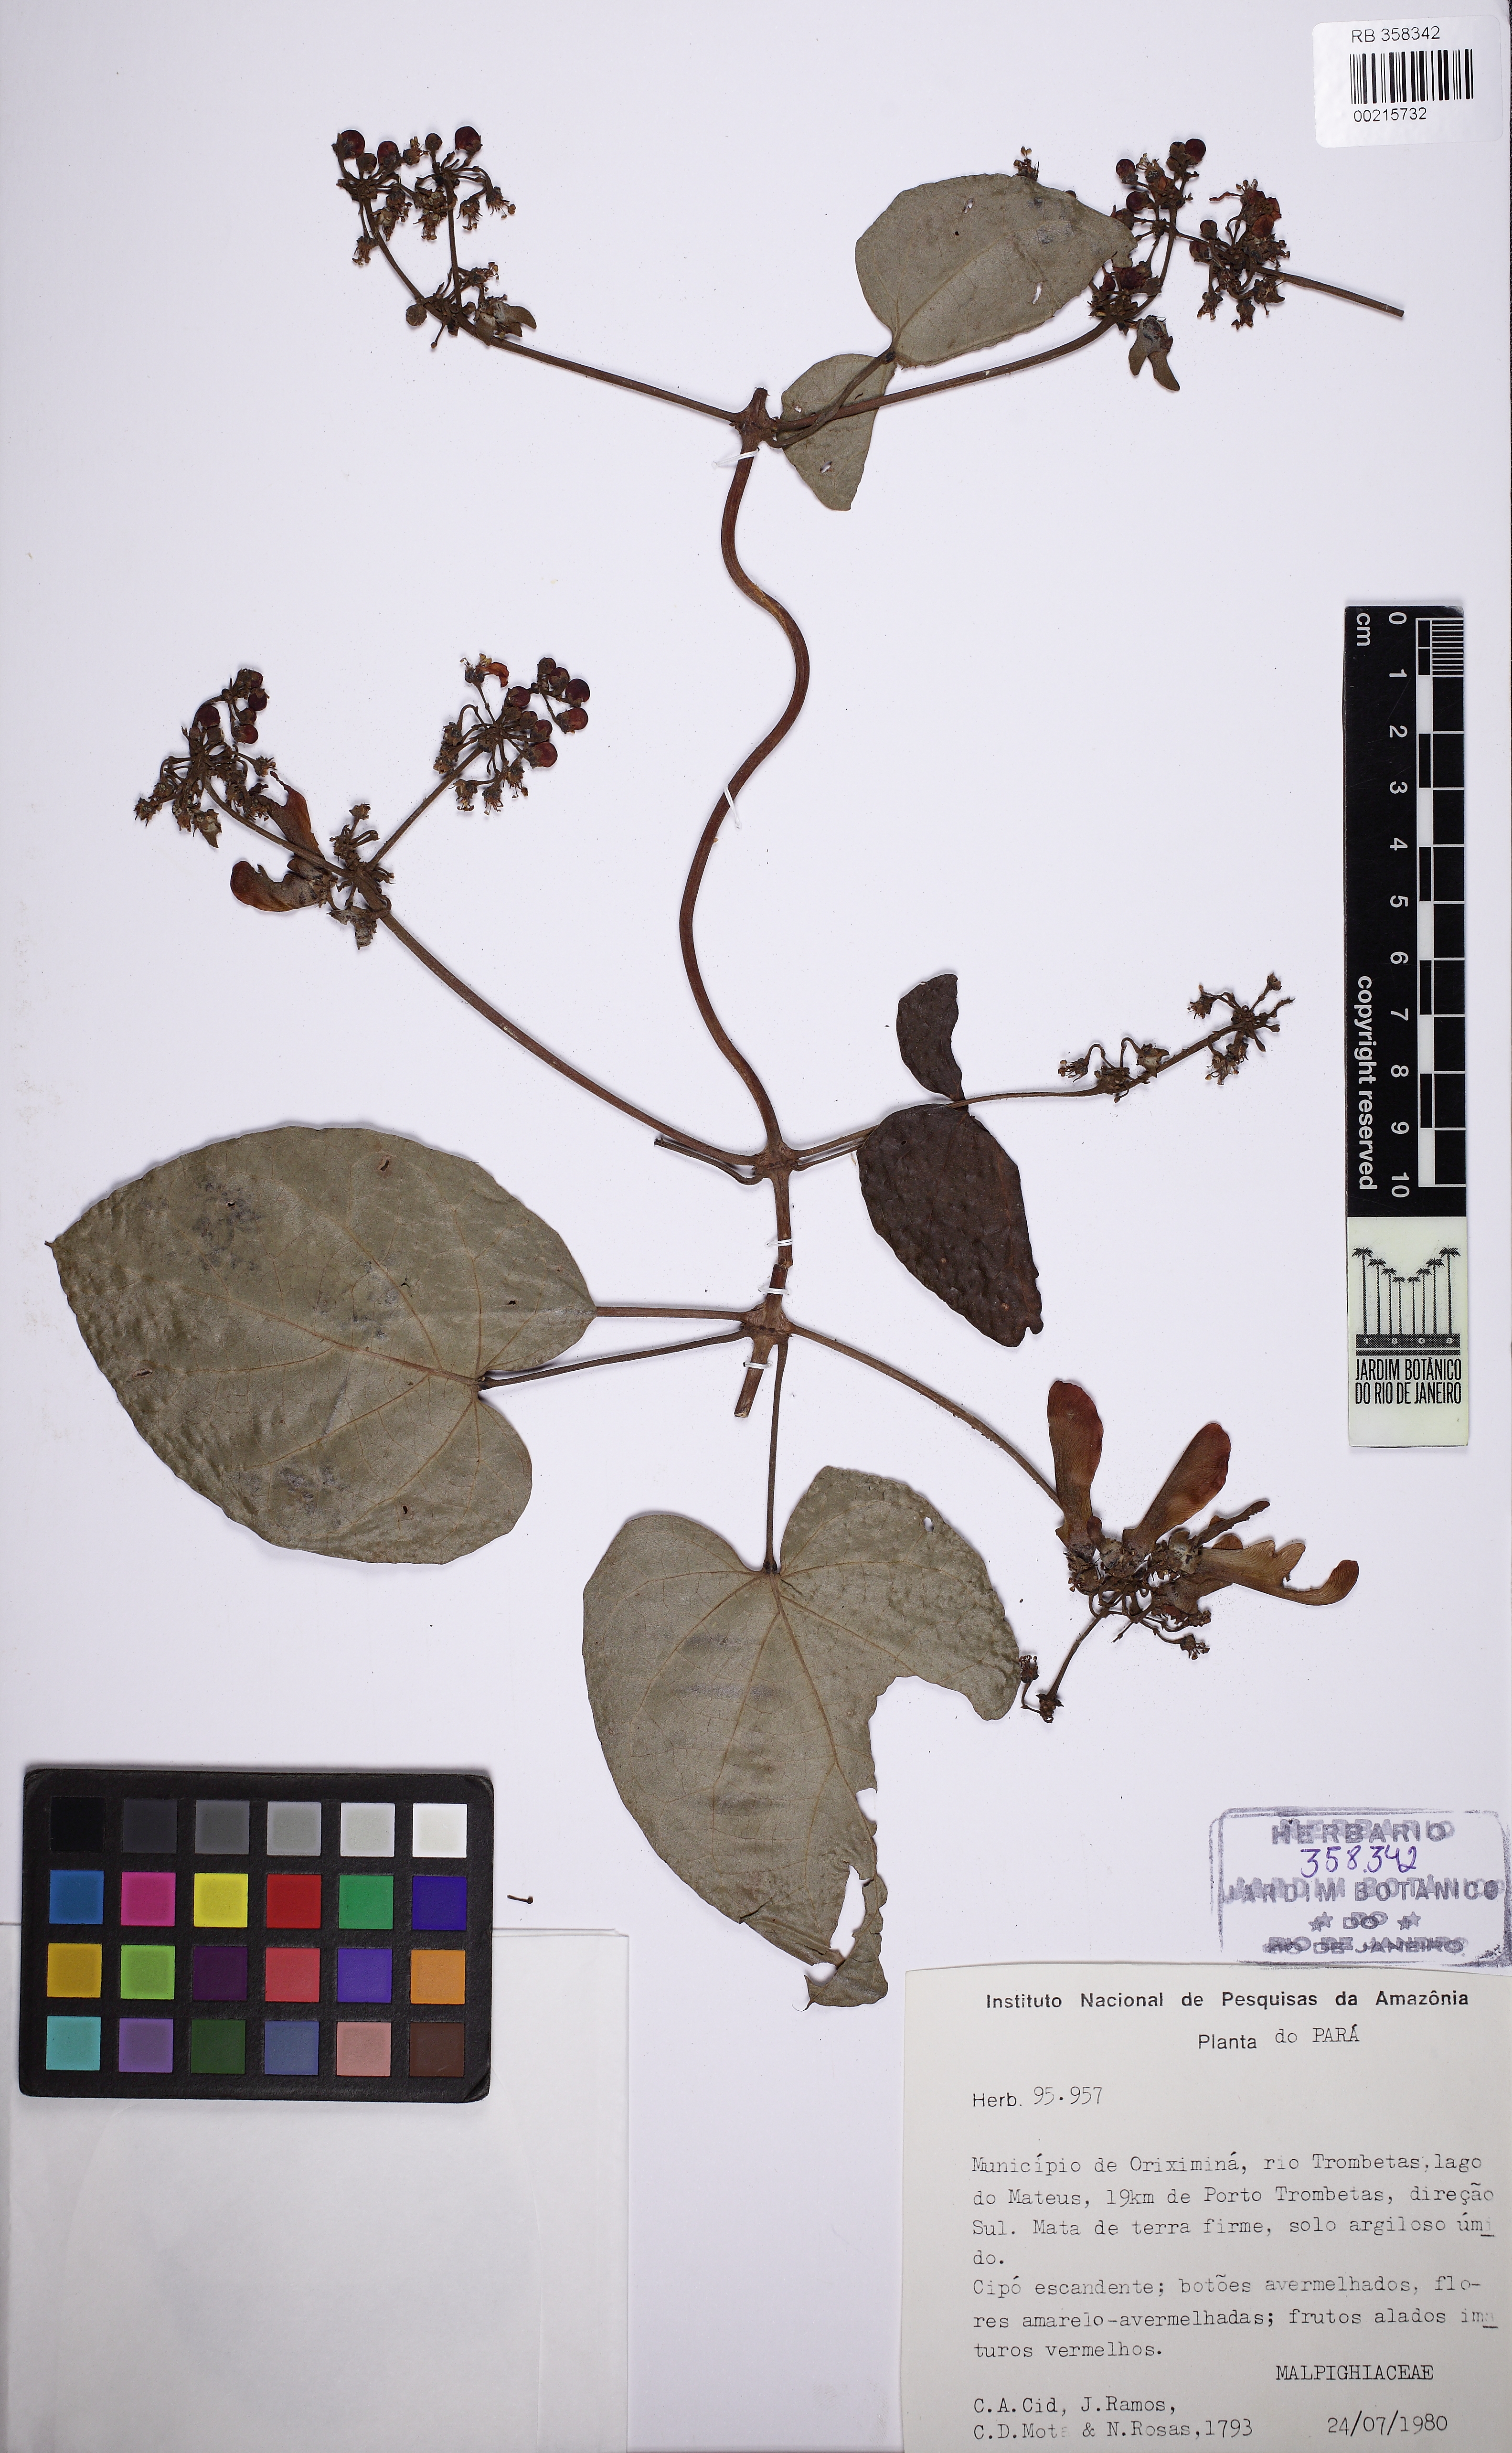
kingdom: Plantae
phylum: Tracheophyta
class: Magnoliopsida
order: Malpighiales
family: Malpighiaceae
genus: Stigmaphyllon
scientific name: Stigmaphyllon stylopogon
